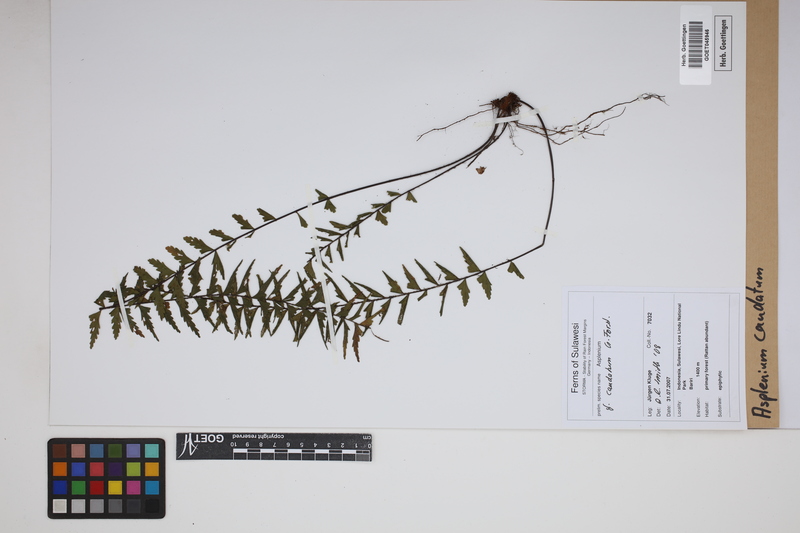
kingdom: Plantae
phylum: Tracheophyta
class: Polypodiopsida
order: Polypodiales
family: Aspleniaceae
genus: Asplenium
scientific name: Asplenium caudatum
